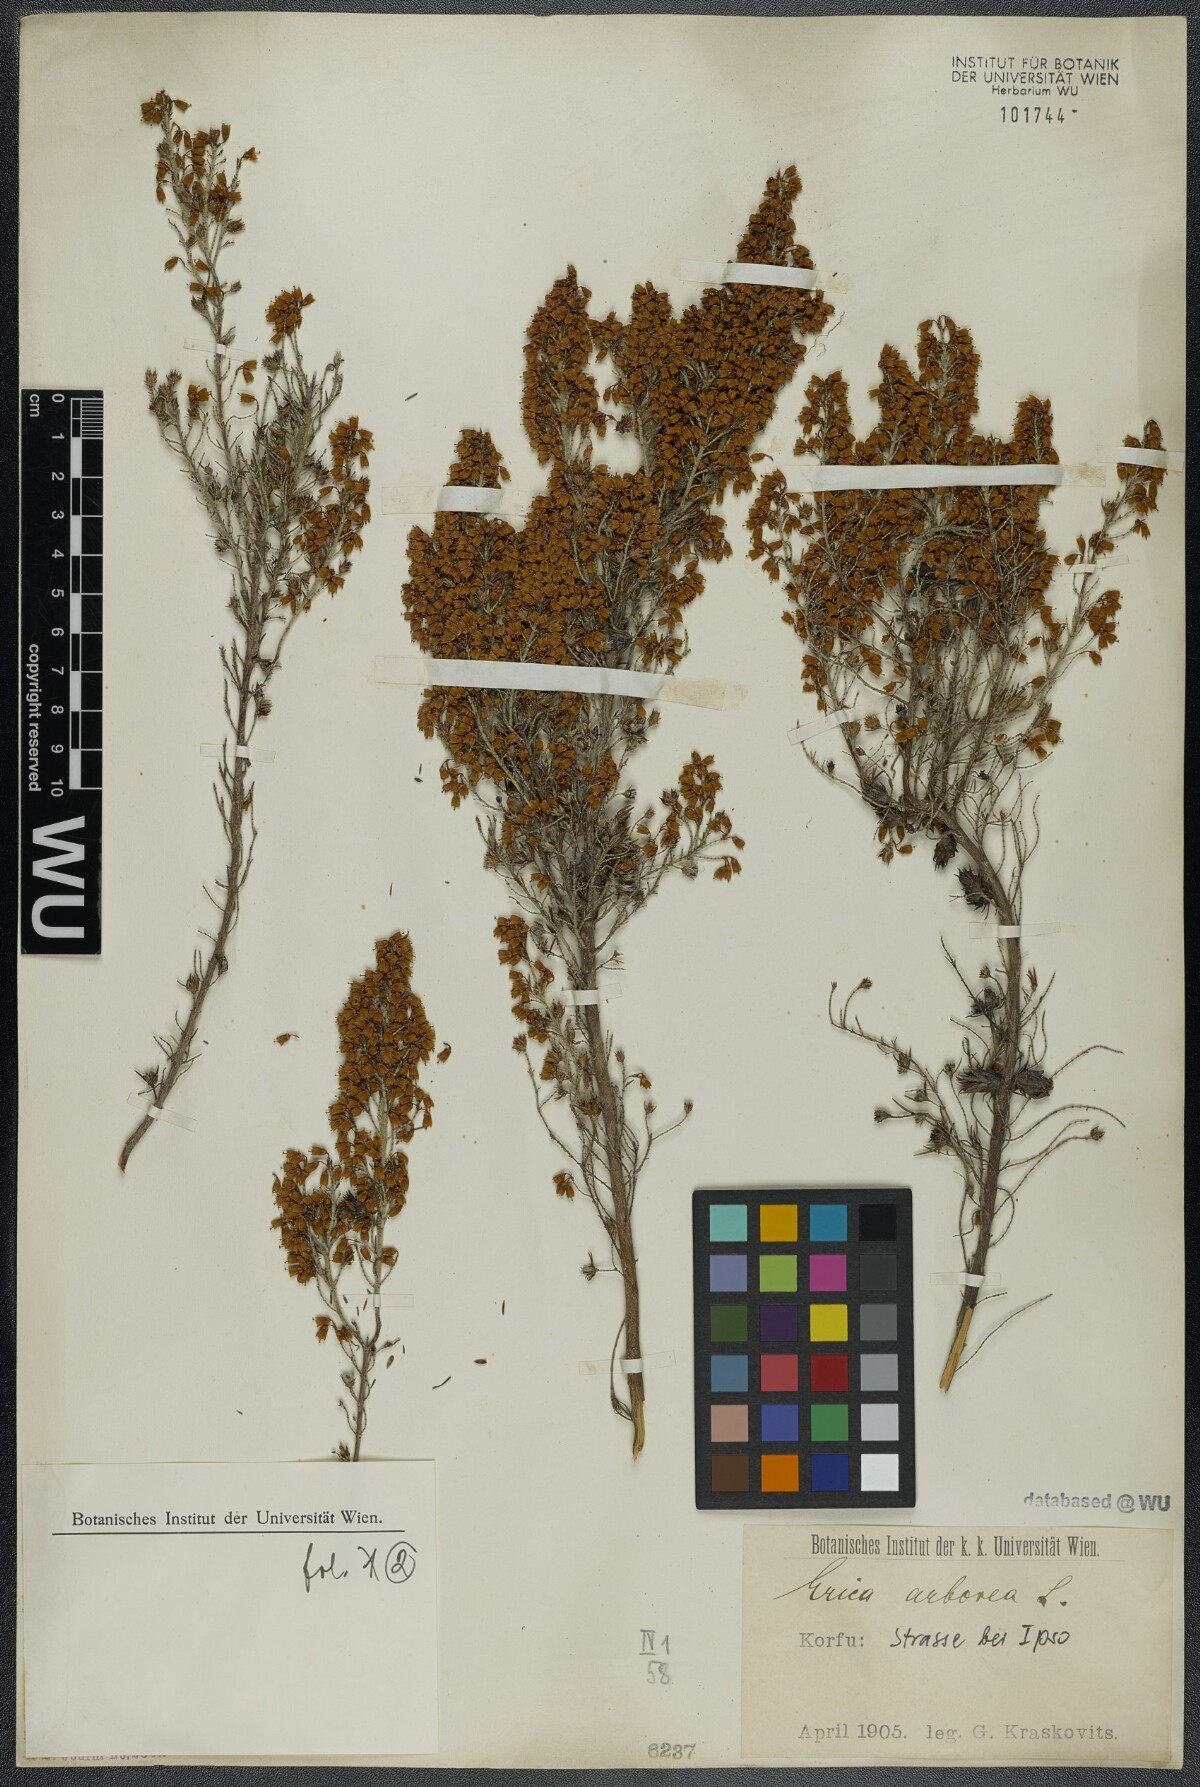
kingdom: Plantae
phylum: Tracheophyta
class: Magnoliopsida
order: Ericales
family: Ericaceae
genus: Erica
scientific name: Erica arborea
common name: Tree heath
